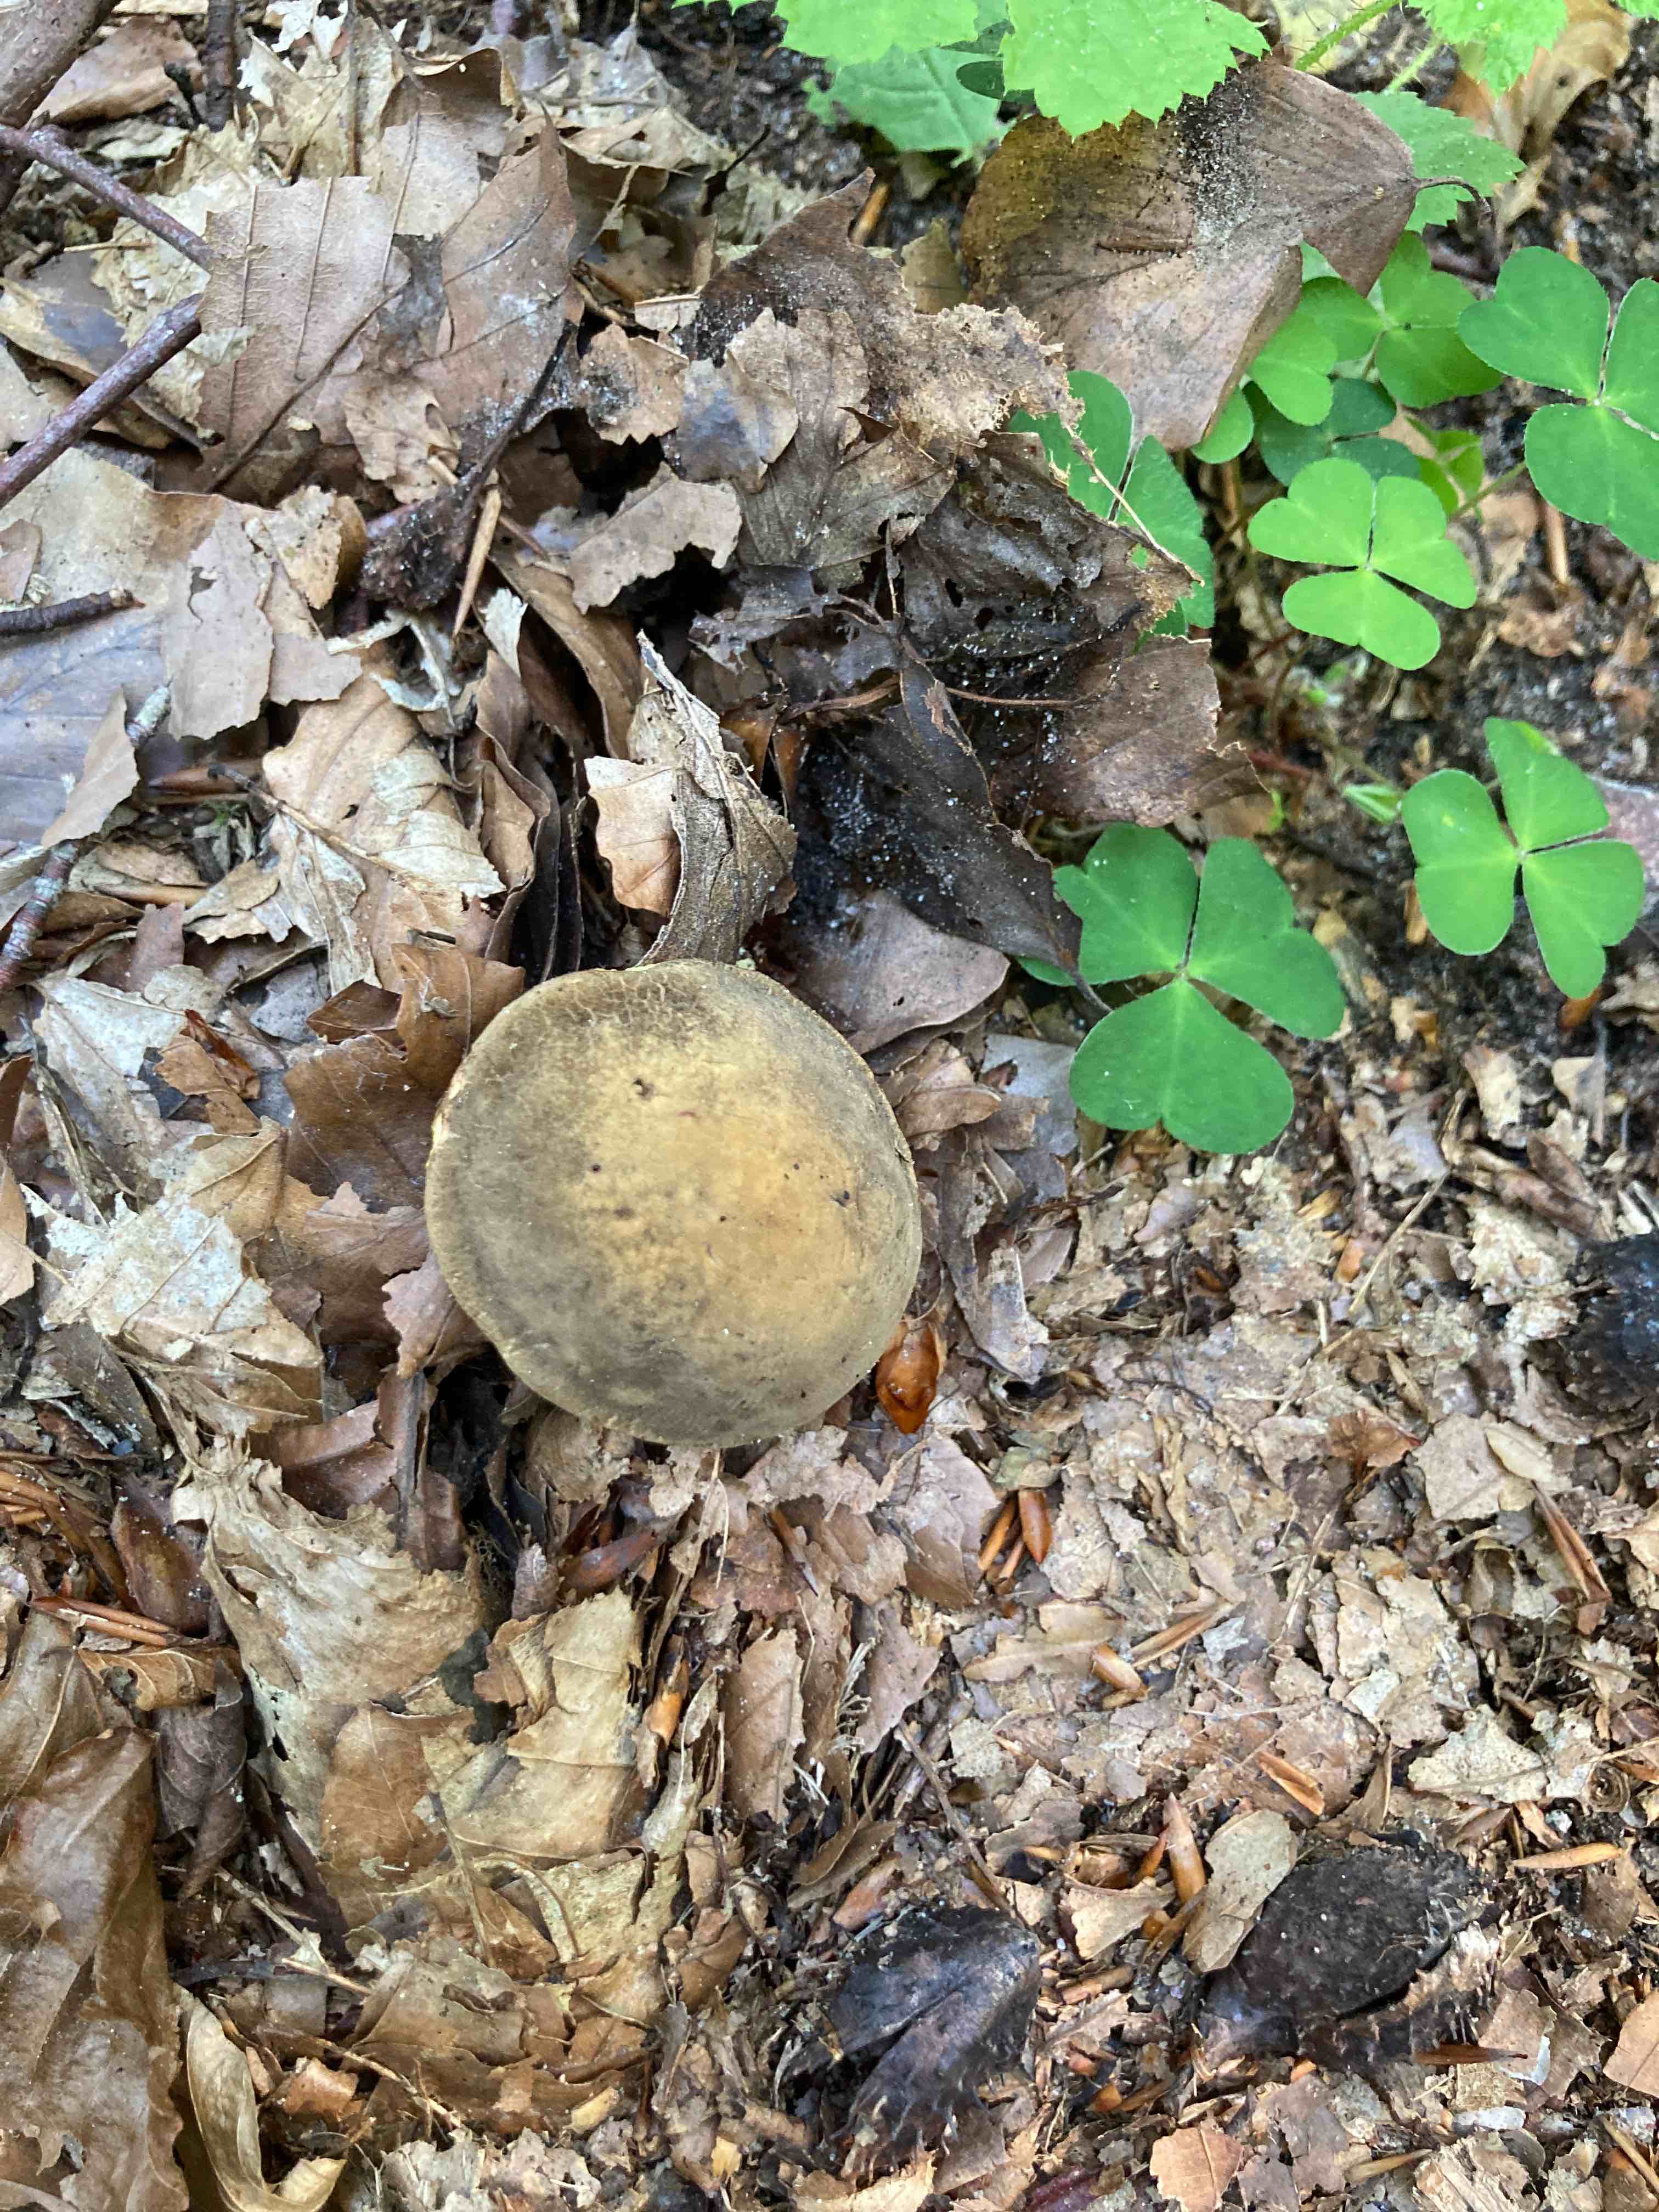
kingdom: Fungi
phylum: Basidiomycota
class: Agaricomycetes
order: Boletales
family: Boletaceae
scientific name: Boletaceae
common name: rørhatfamilien
